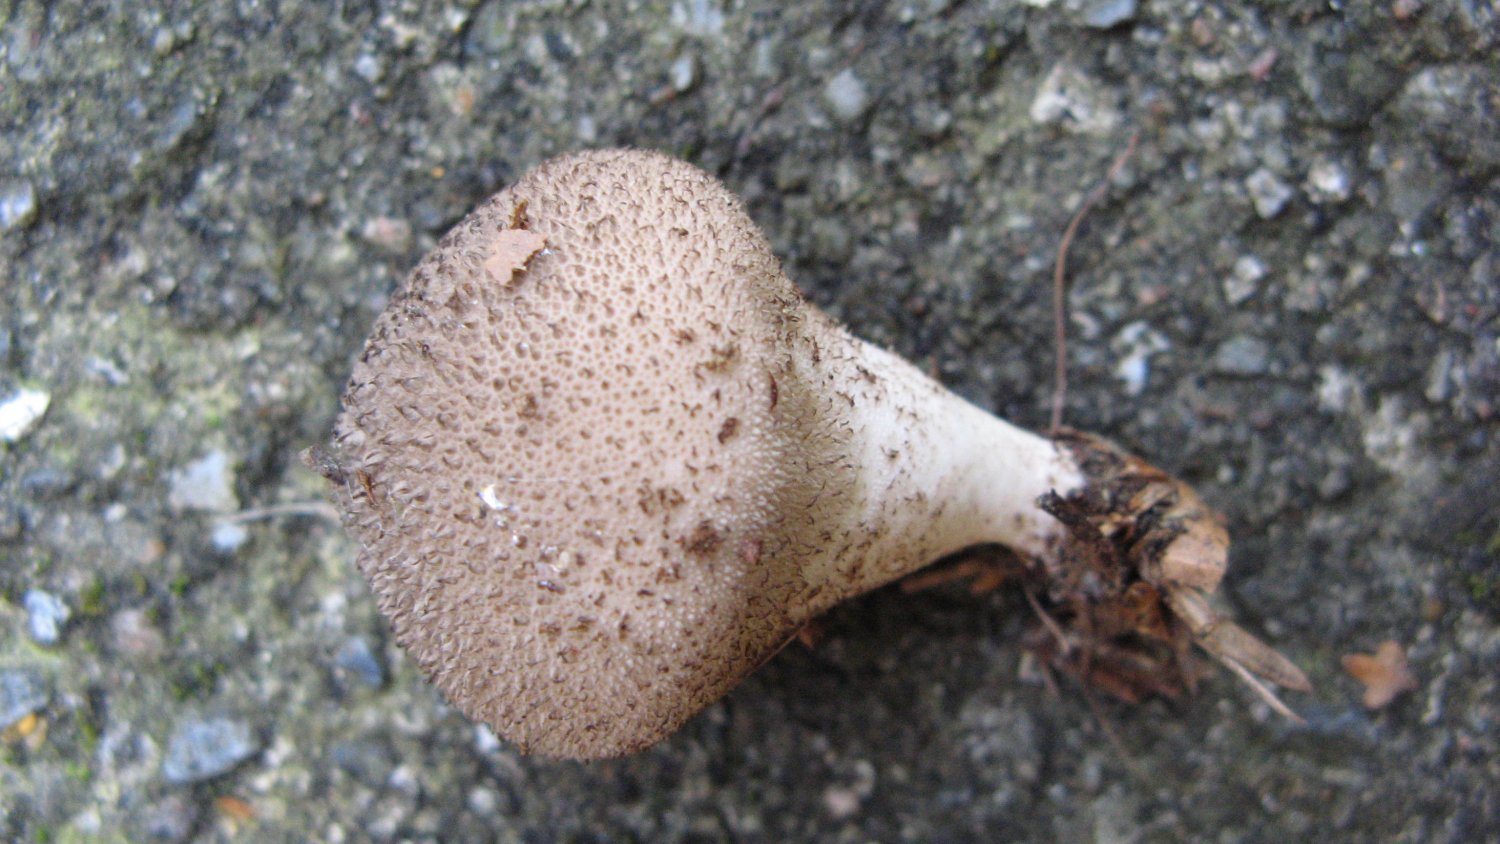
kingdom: Fungi
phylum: Basidiomycota
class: Agaricomycetes
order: Agaricales
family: Lycoperdaceae
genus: Lycoperdon
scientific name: Lycoperdon nigrescens
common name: sortagtig støvbold
